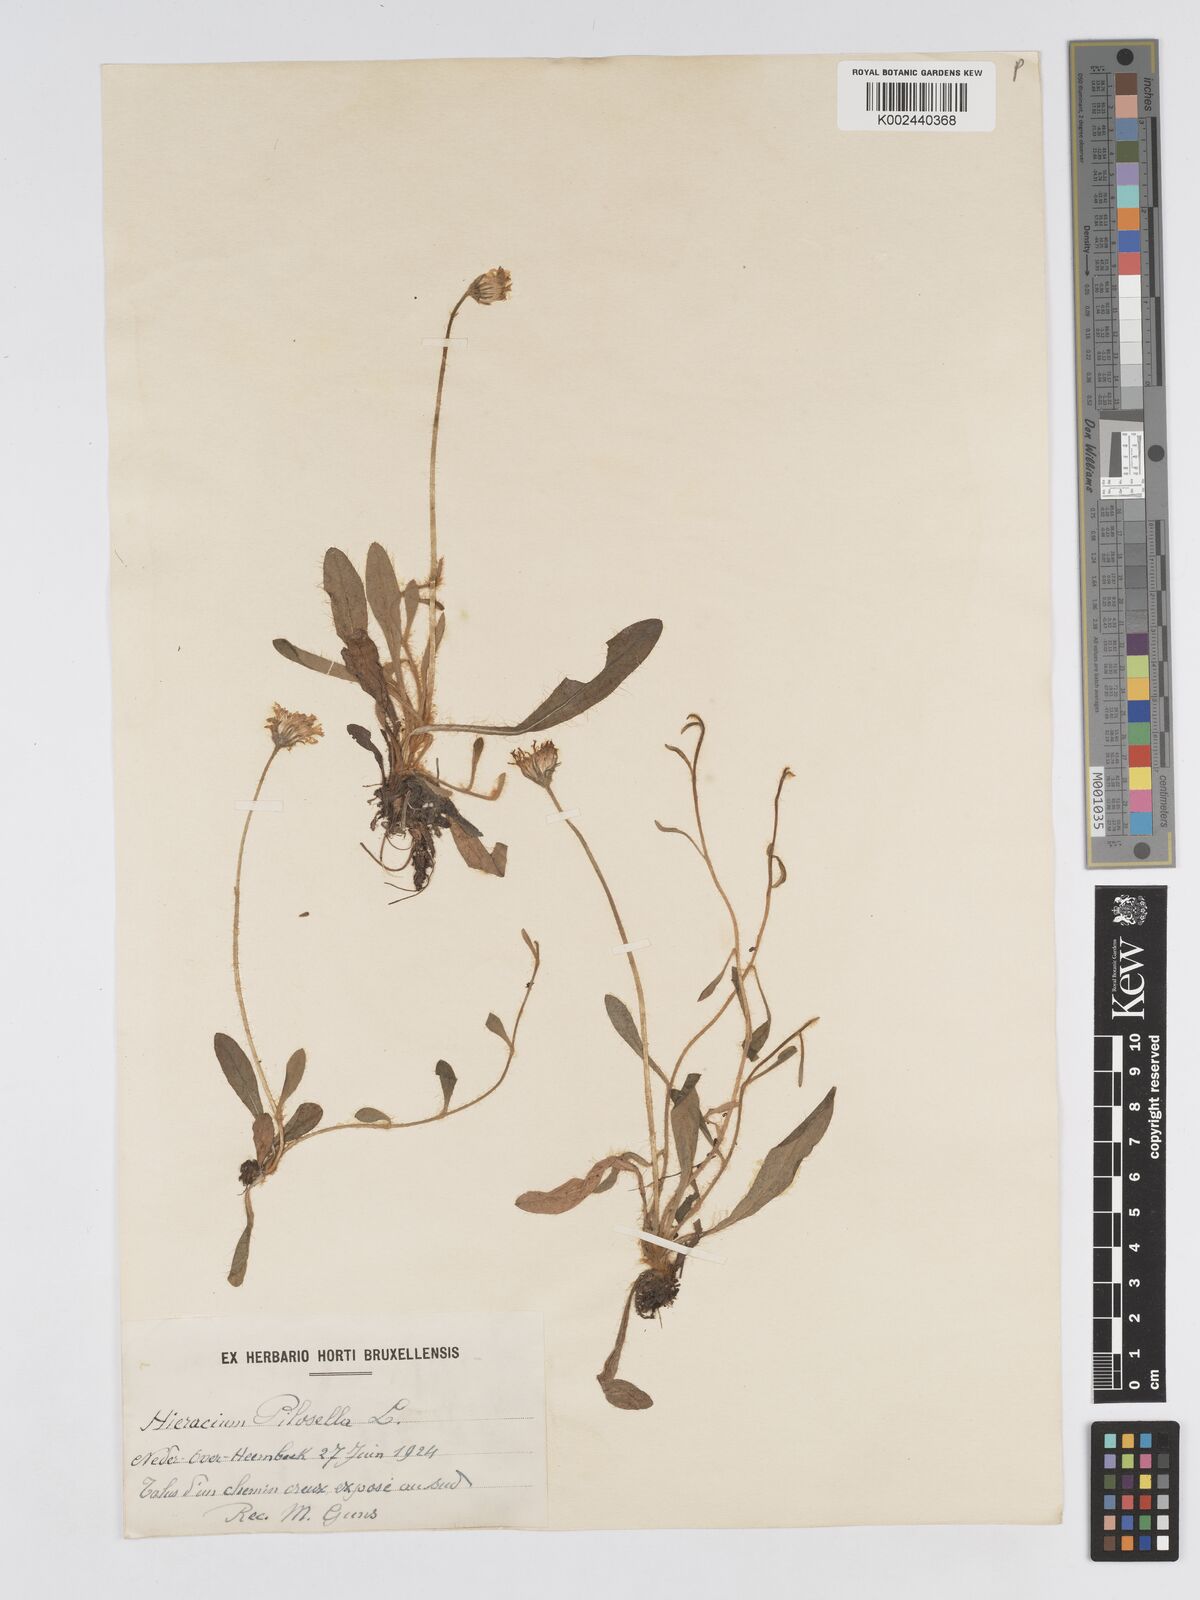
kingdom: Plantae
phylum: Tracheophyta
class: Magnoliopsida
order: Asterales
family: Asteraceae
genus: Pilosella
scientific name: Pilosella officinarum
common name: Mouse-ear hawkweed
